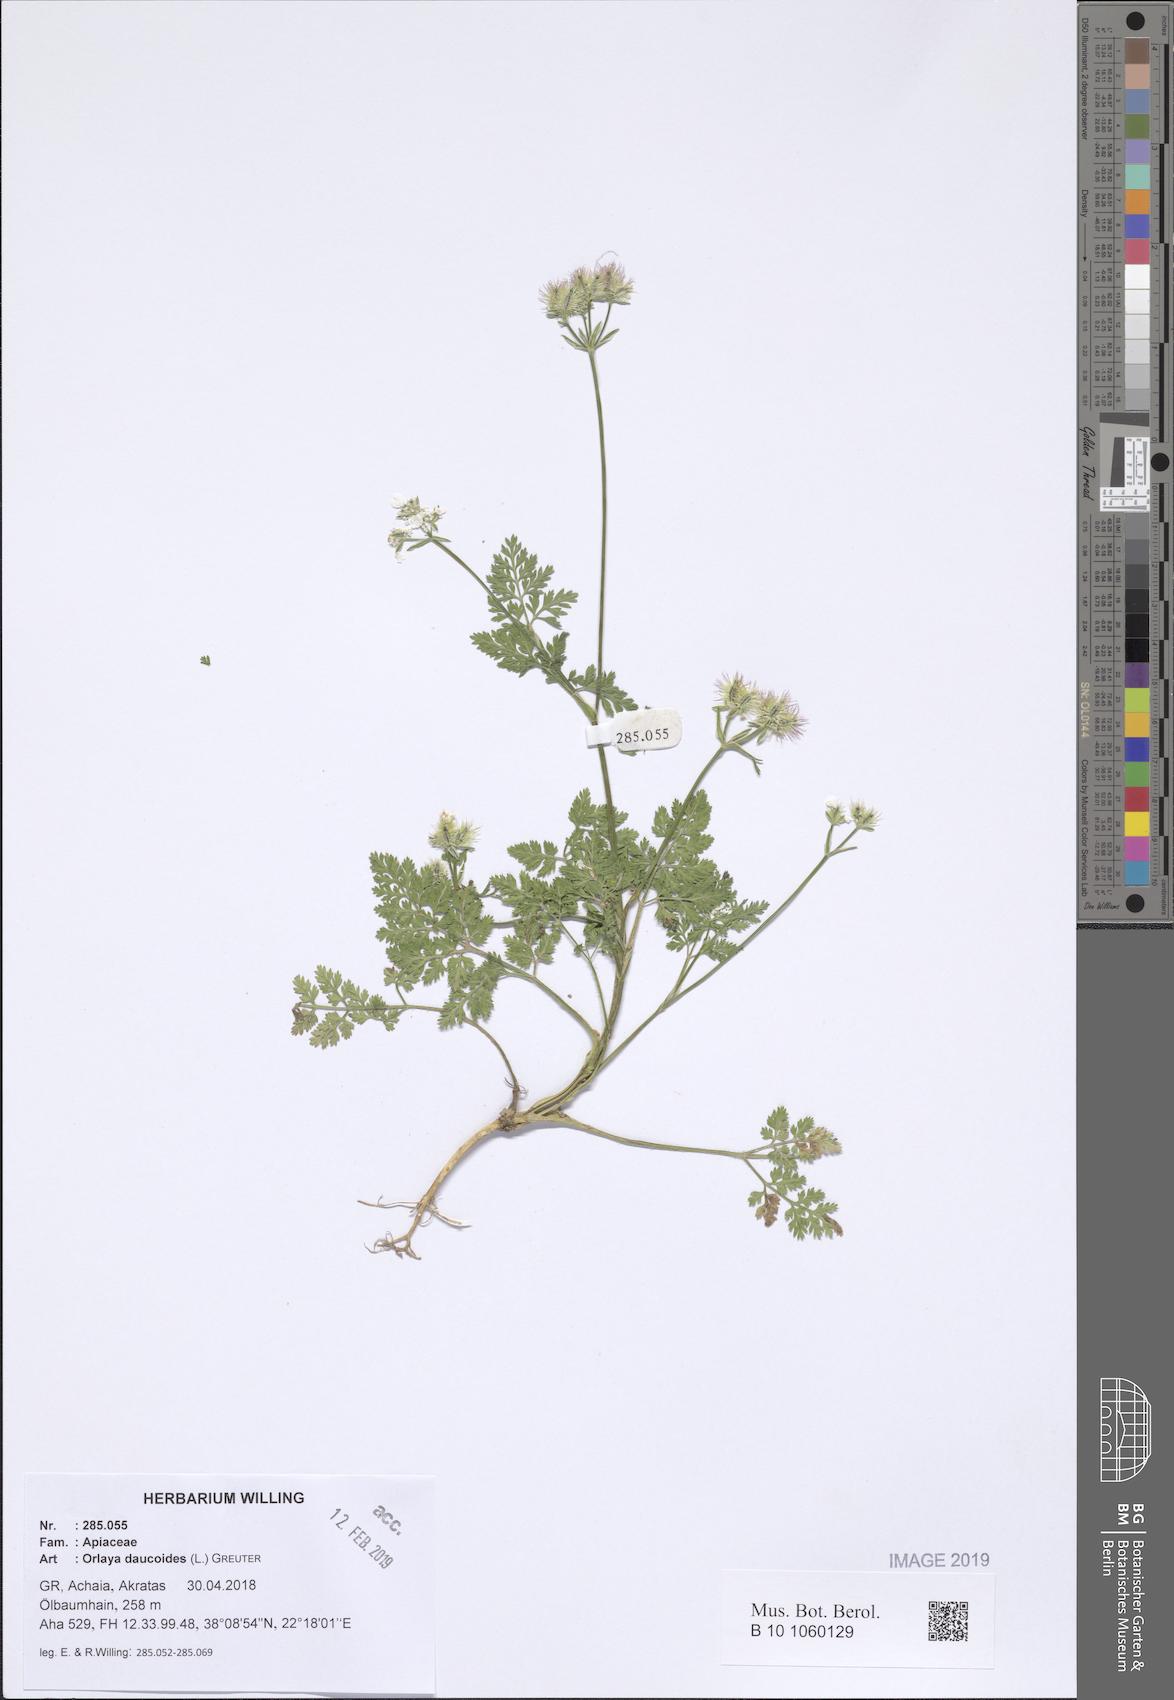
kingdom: Plantae
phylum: Tracheophyta
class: Magnoliopsida
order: Apiales
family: Apiaceae
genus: Orlaya
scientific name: Orlaya daucoides
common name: Flat-fruit orlaya
